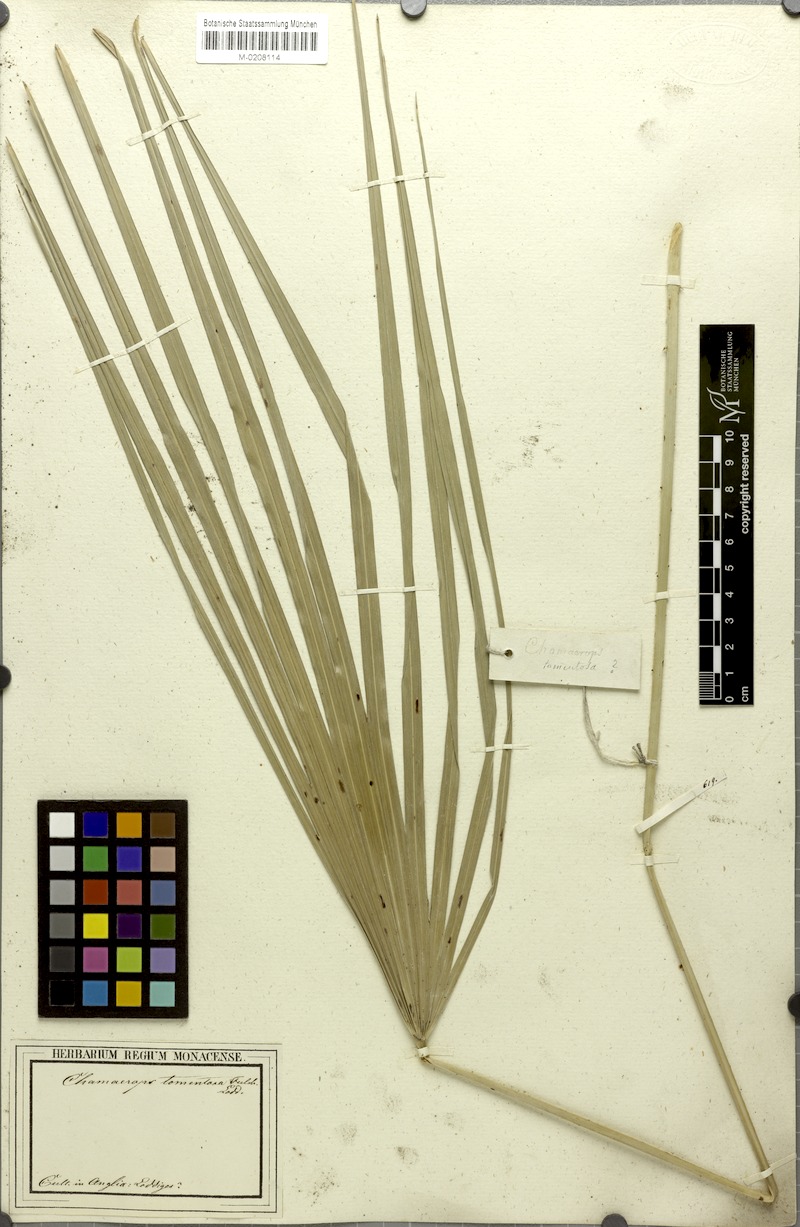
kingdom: Plantae
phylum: Tracheophyta
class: Liliopsida
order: Arecales
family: Arecaceae
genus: Trachycarpus
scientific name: Trachycarpus martianus
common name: Martius's windmill palm
